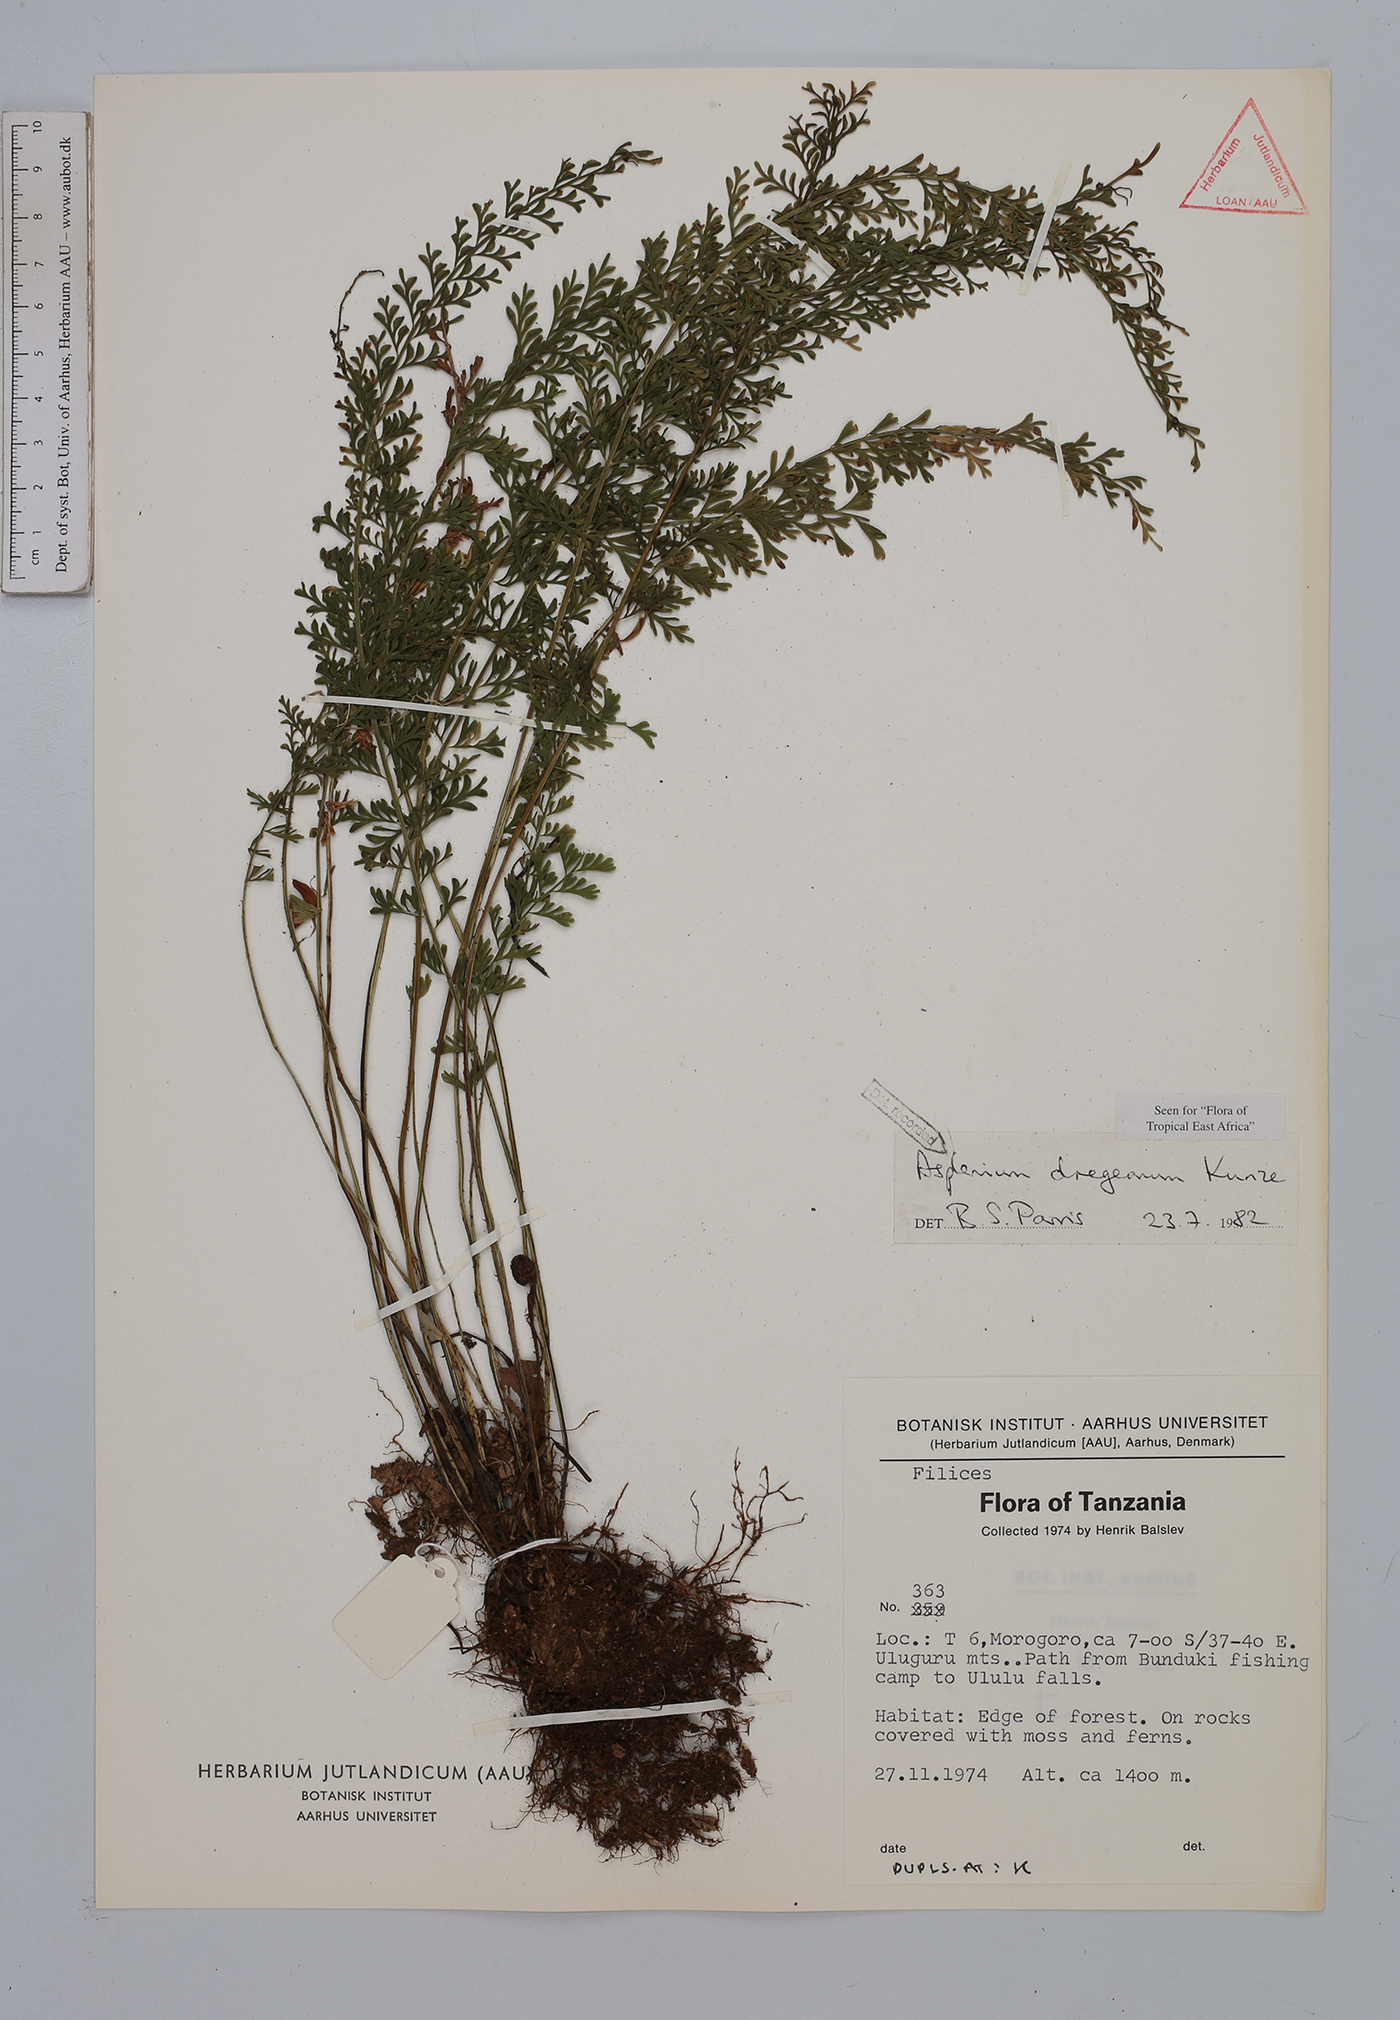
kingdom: Plantae
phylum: Tracheophyta
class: Polypodiopsida
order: Polypodiales
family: Aspleniaceae
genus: Asplenium
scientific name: Asplenium dregeanum
